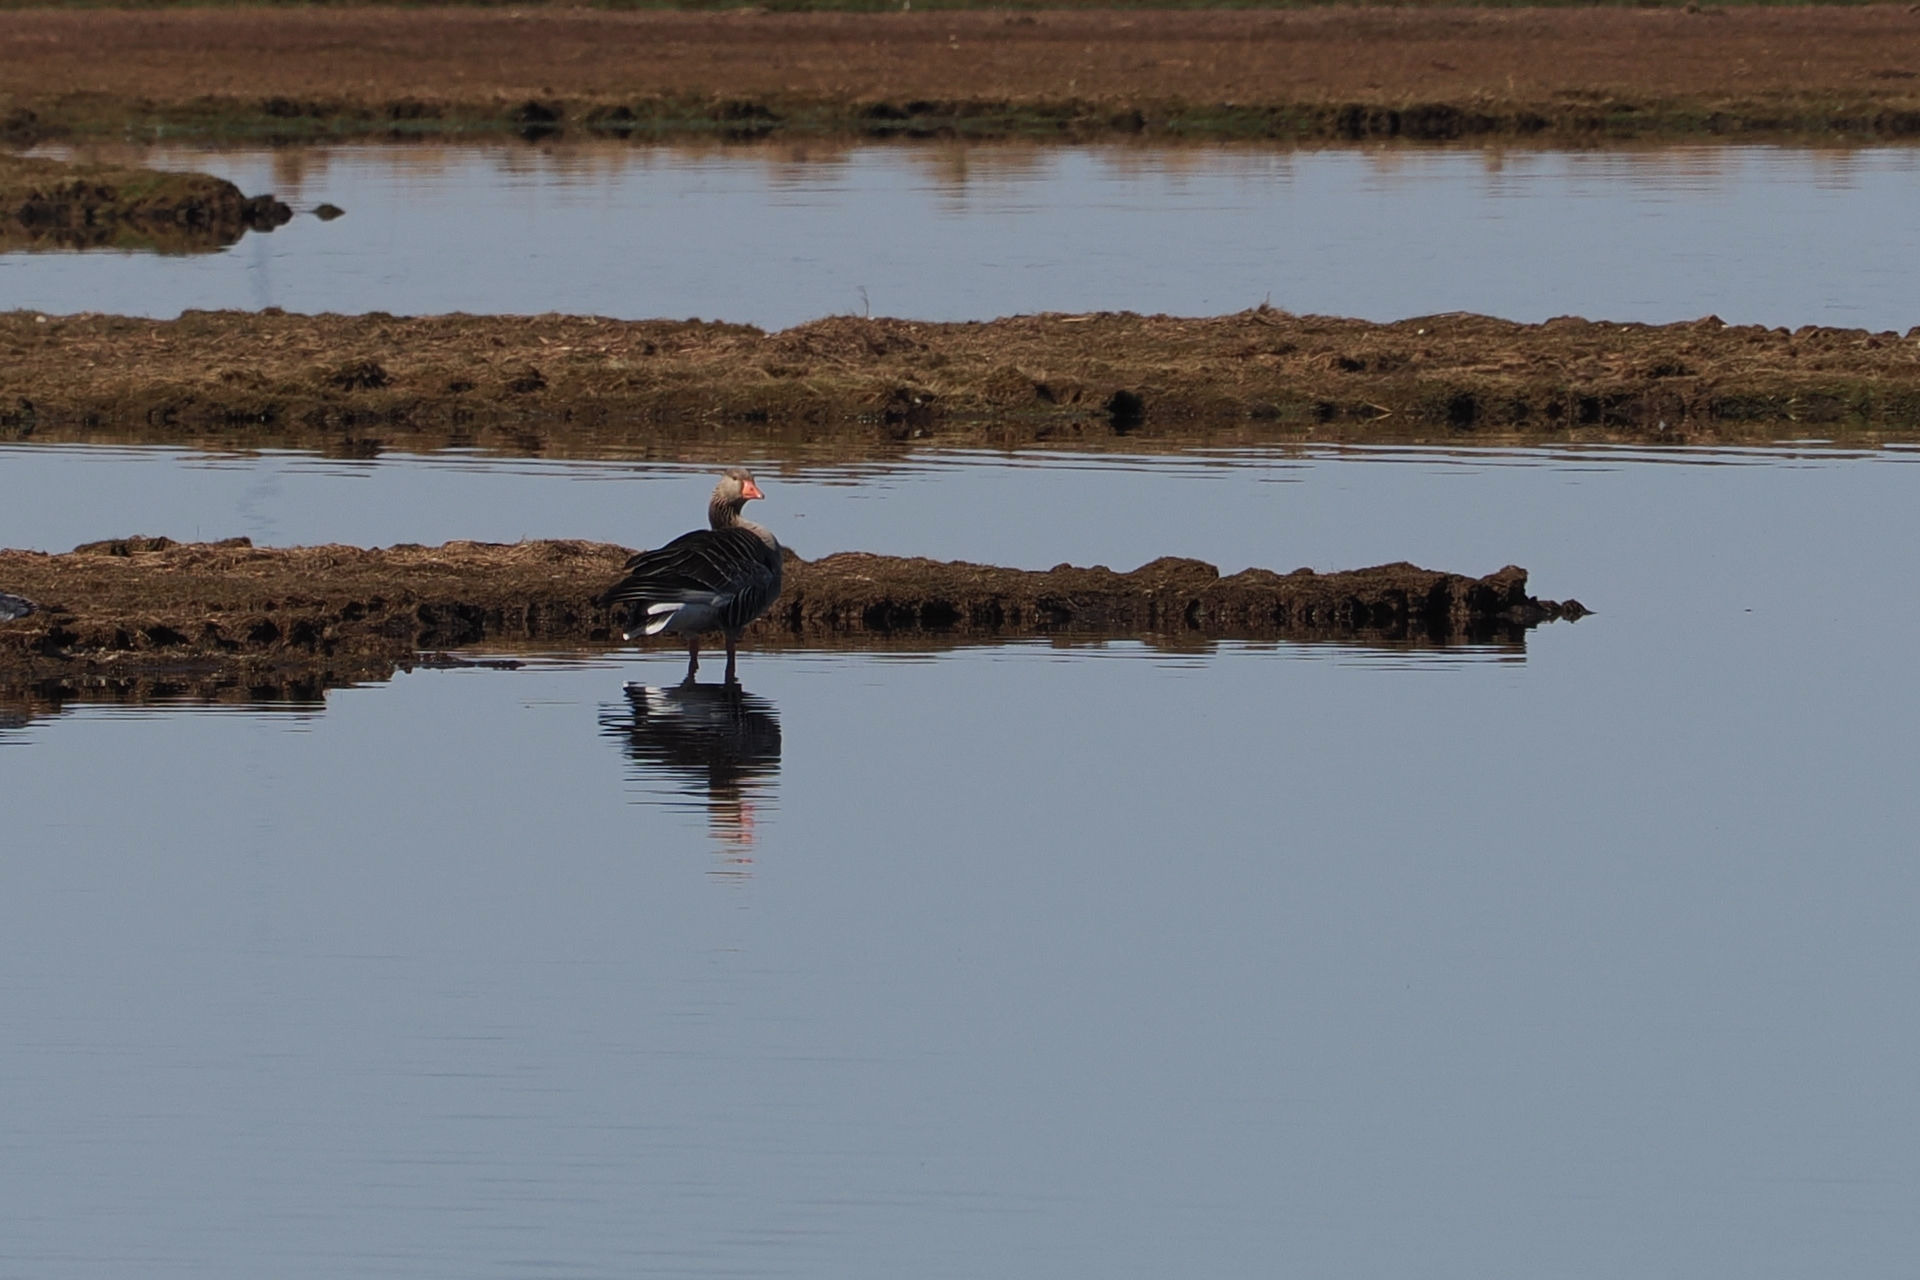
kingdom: Animalia
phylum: Chordata
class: Aves
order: Anseriformes
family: Anatidae
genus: Anser
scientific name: Anser anser
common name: Grågås
